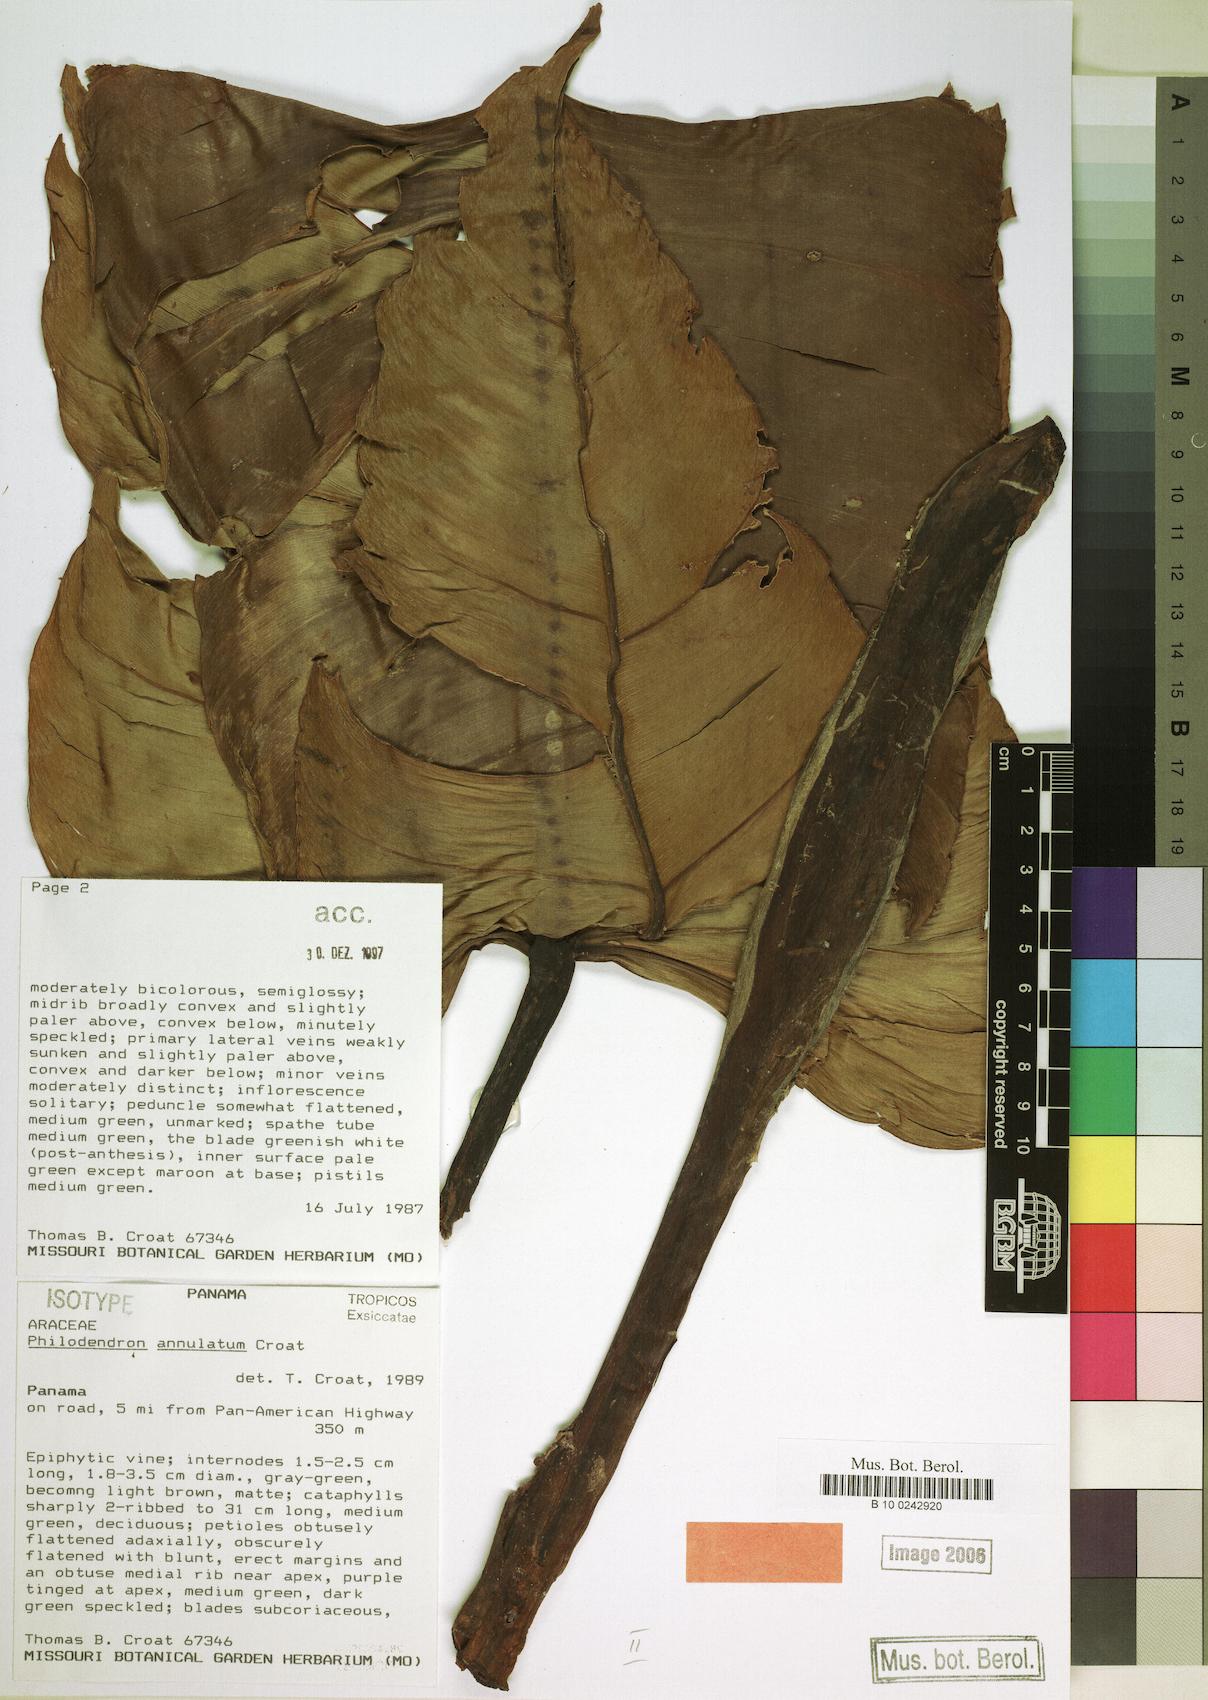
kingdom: Plantae
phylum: Tracheophyta
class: Liliopsida
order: Alismatales
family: Araceae
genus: Philodendron
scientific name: Philodendron annulatum
